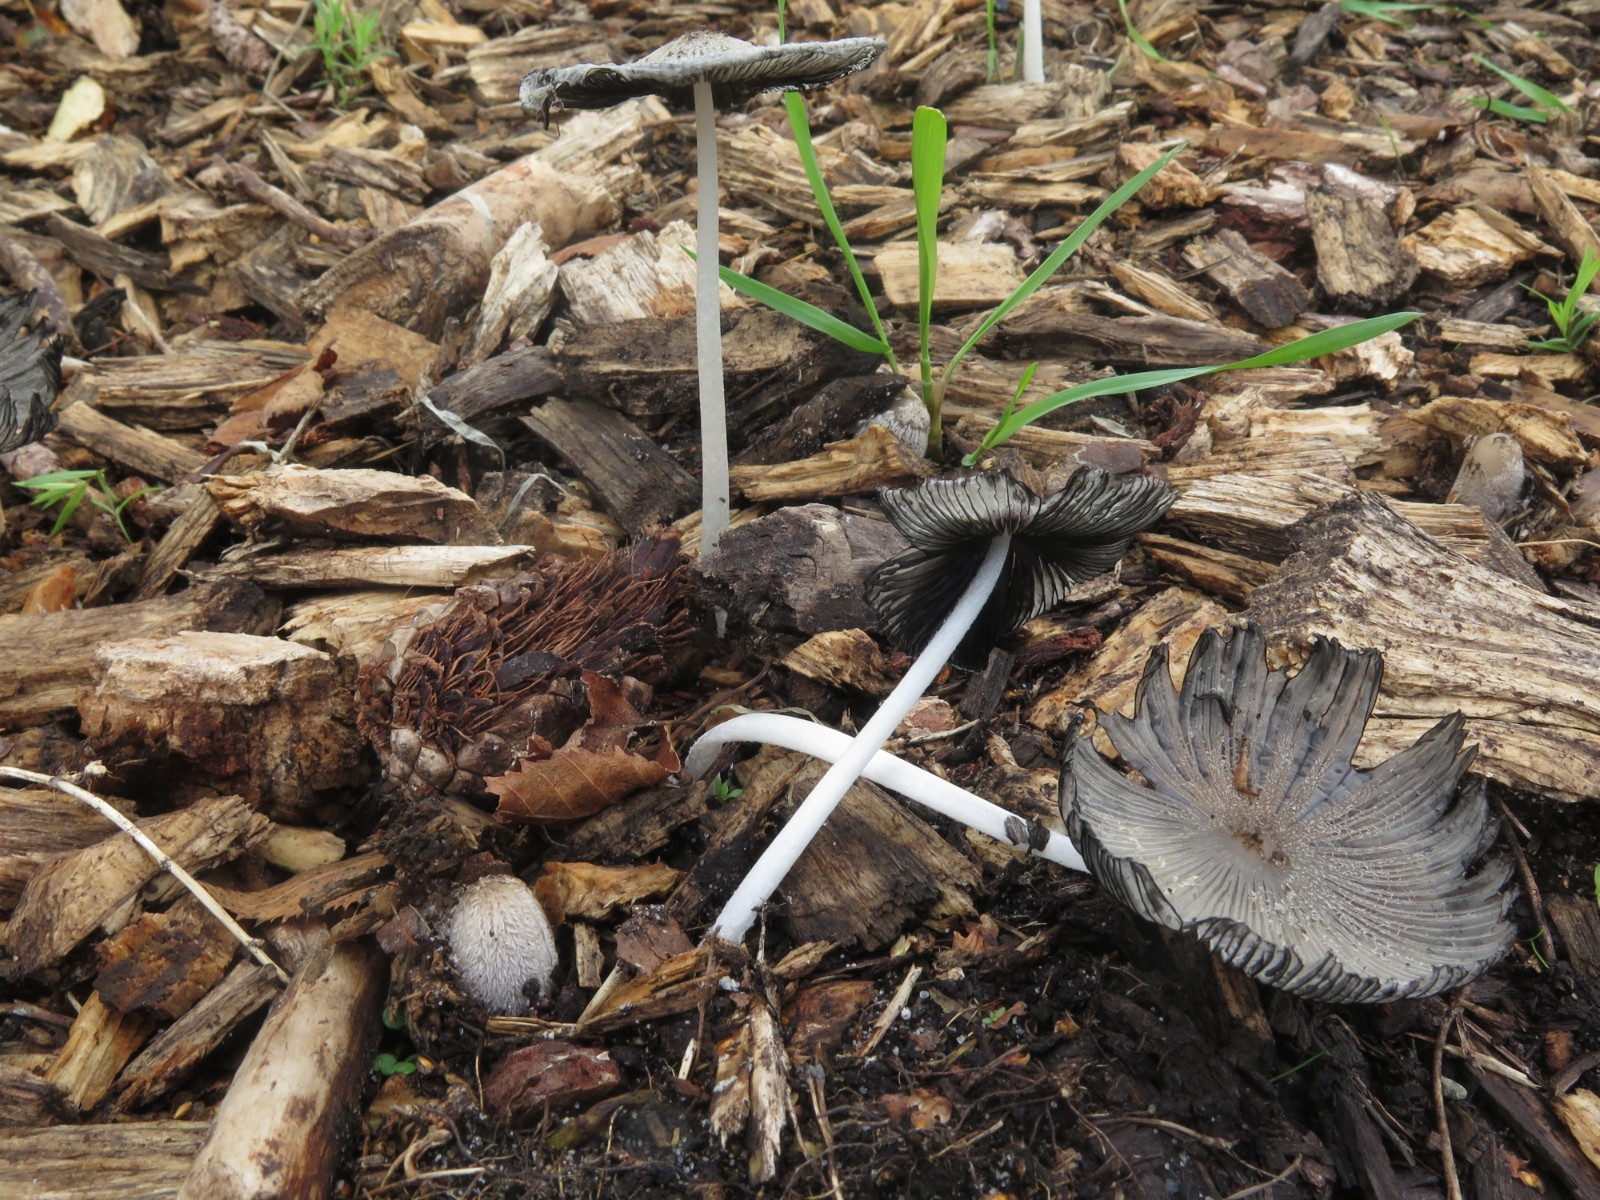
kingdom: Fungi
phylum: Basidiomycota
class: Agaricomycetes
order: Agaricales
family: Psathyrellaceae
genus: Coprinopsis
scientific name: Coprinopsis lagopus
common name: dunstokket blækhat
